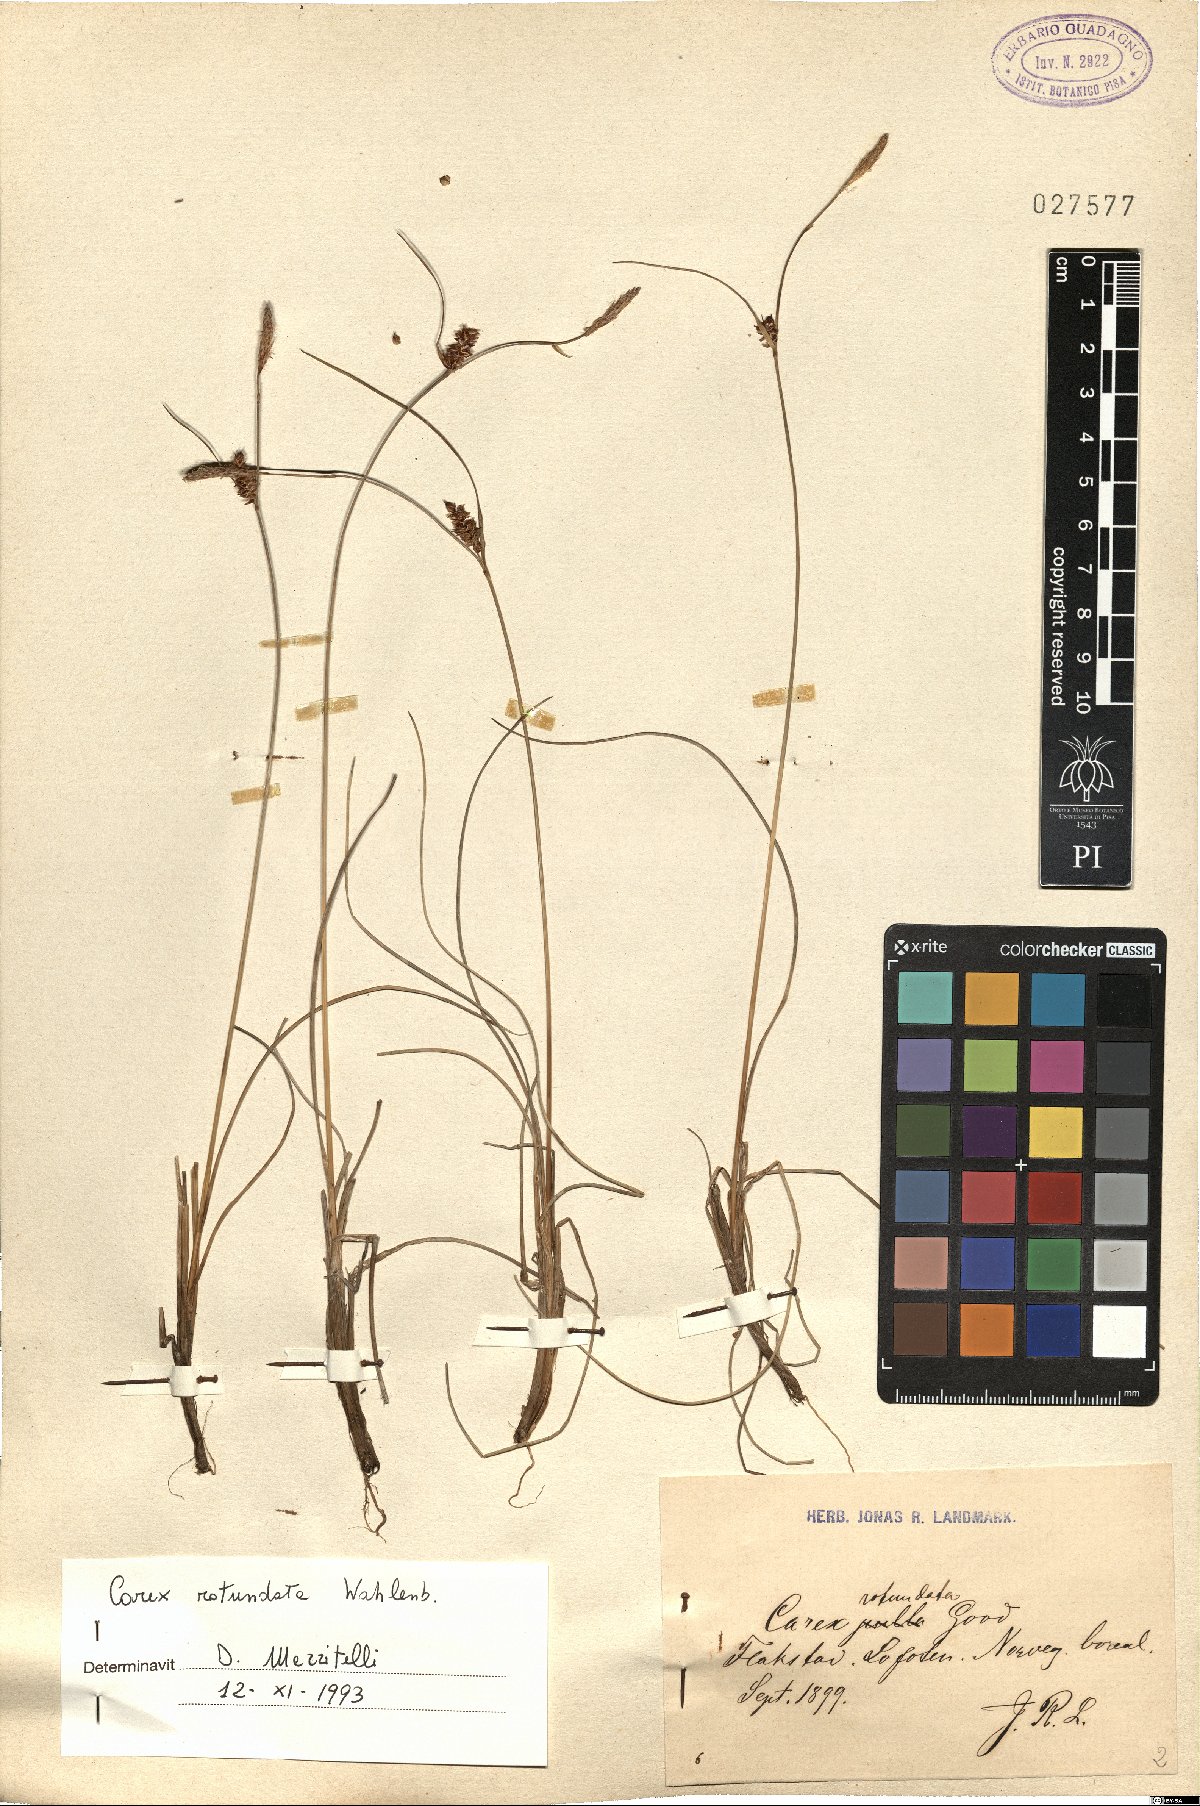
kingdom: Plantae
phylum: Tracheophyta
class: Liliopsida
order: Poales
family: Cyperaceae
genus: Carex
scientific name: Carex rotundata
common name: Round-fruited sedge
